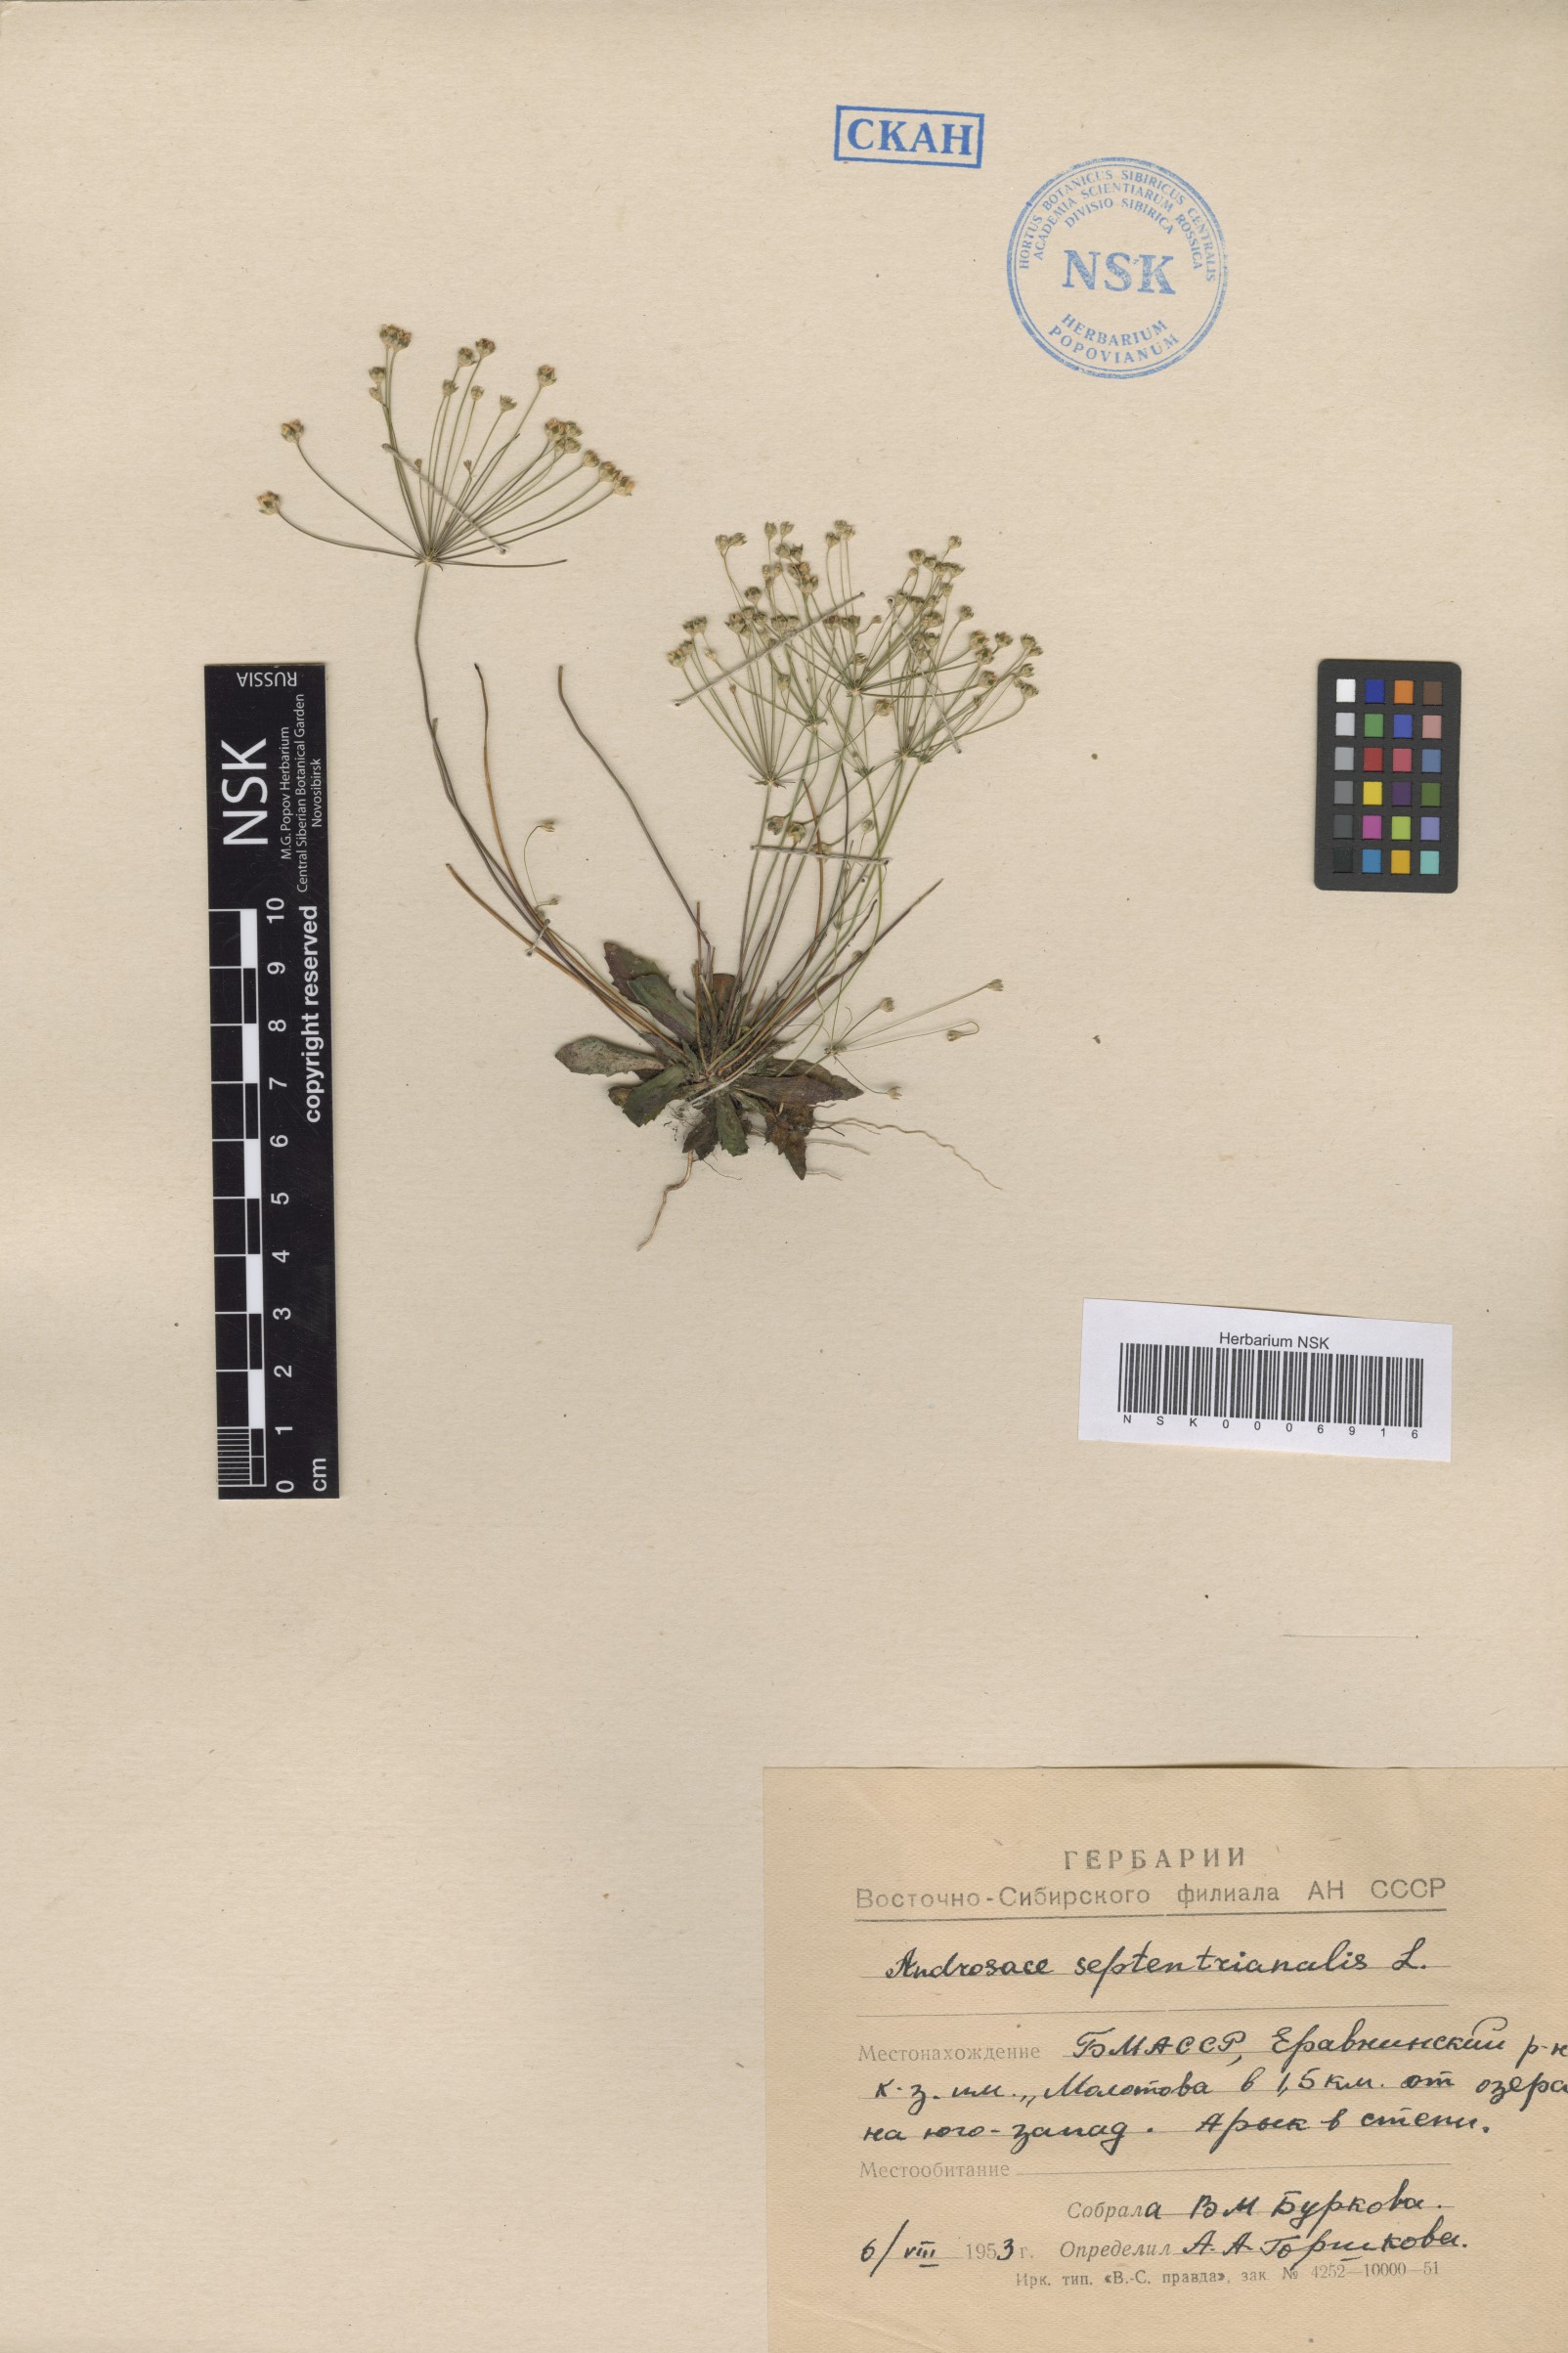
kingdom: Plantae
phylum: Tracheophyta
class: Magnoliopsida
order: Ericales
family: Primulaceae
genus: Androsace
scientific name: Androsace septentrionalis
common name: Hairy northern fairy-candelabra
